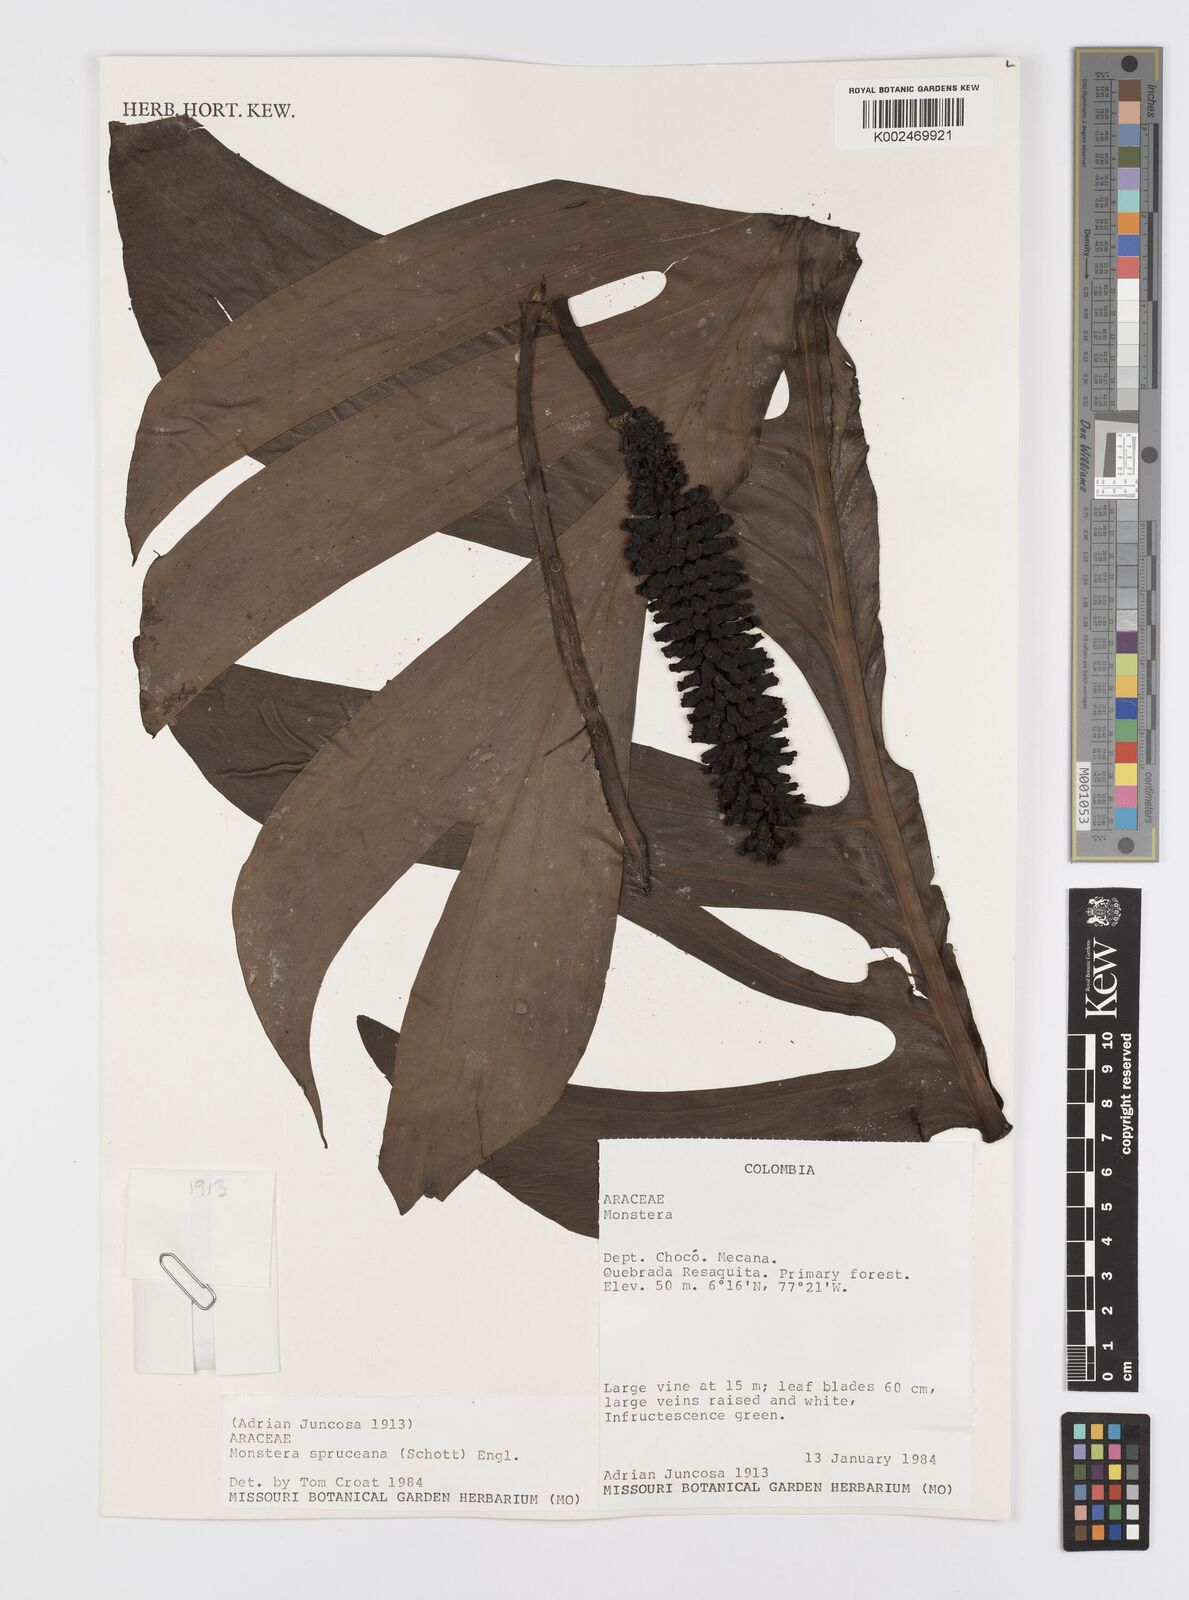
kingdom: Plantae
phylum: Tracheophyta
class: Liliopsida
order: Alismatales
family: Araceae
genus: Monstera
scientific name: Monstera spruceana
